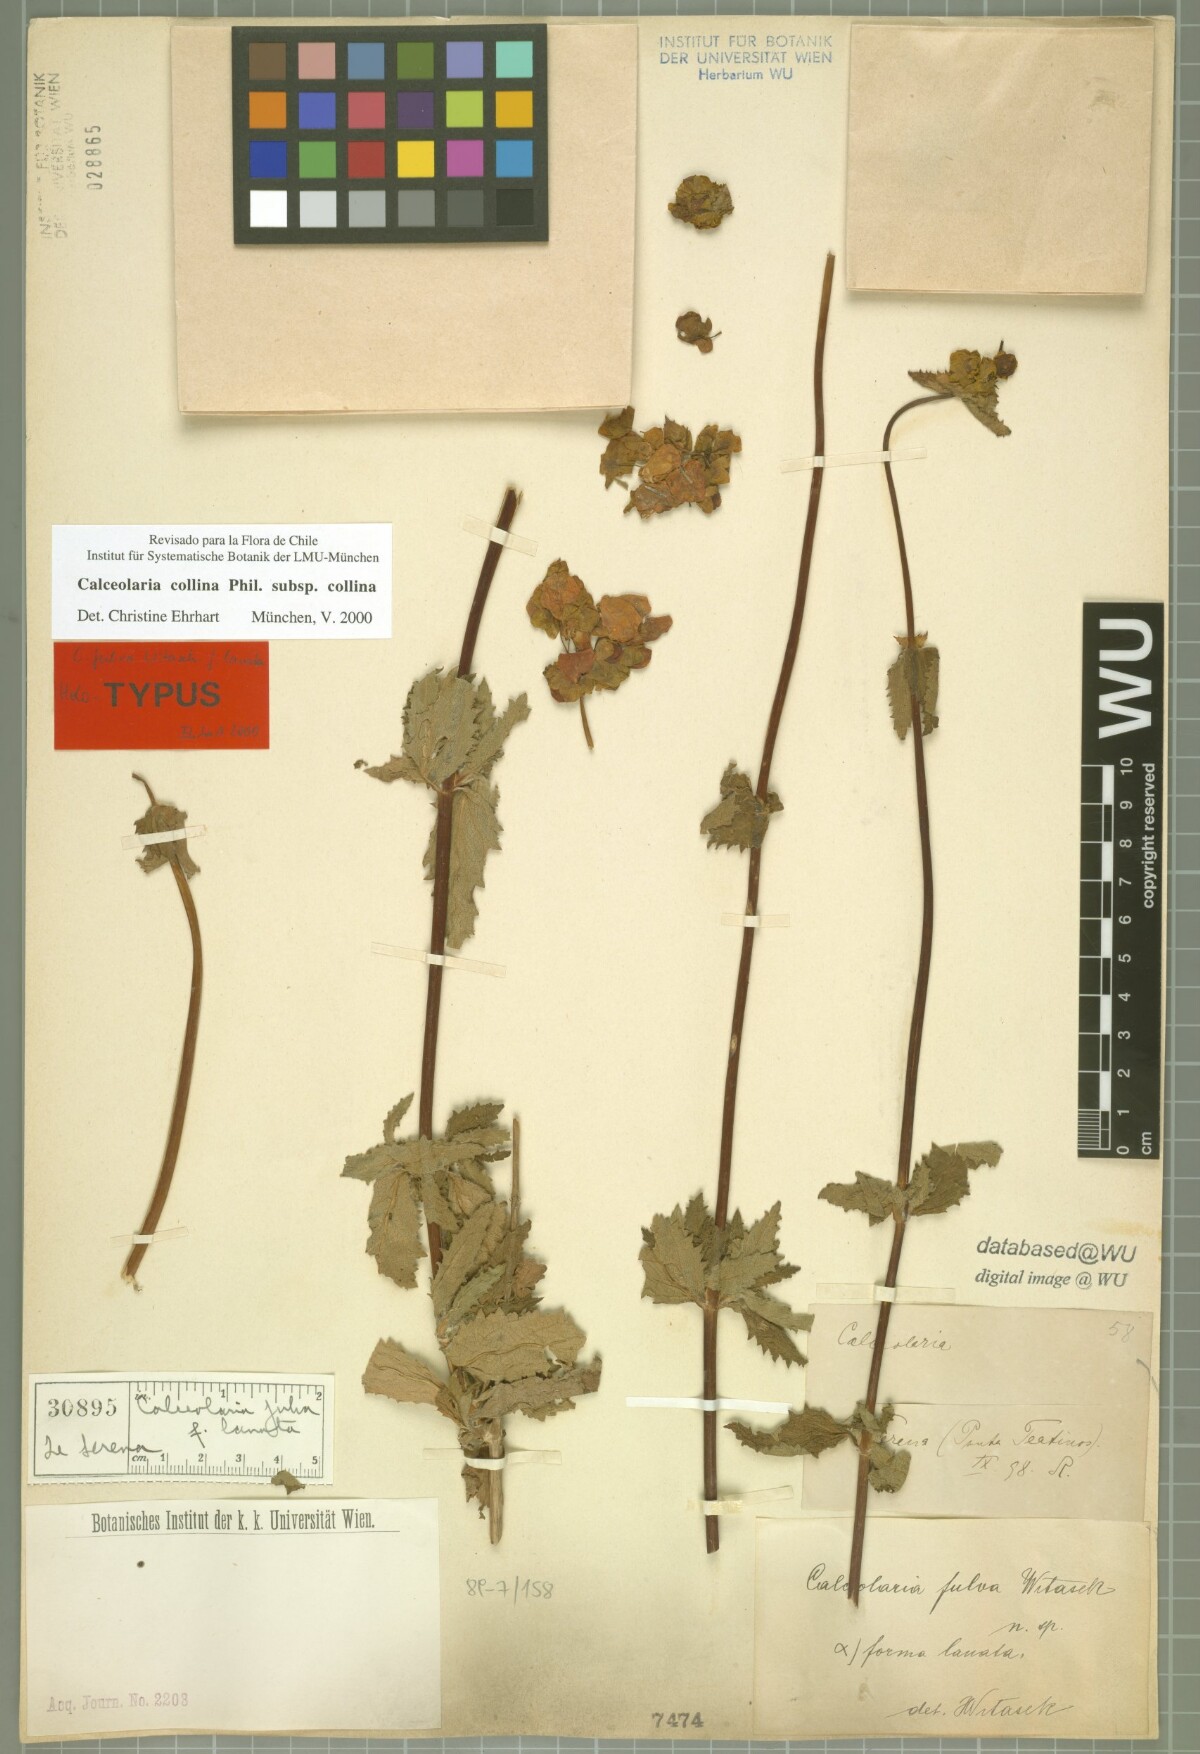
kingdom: Plantae
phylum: Tracheophyta
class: Magnoliopsida
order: Lamiales
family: Calceolariaceae
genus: Calceolaria
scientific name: Calceolaria collina
